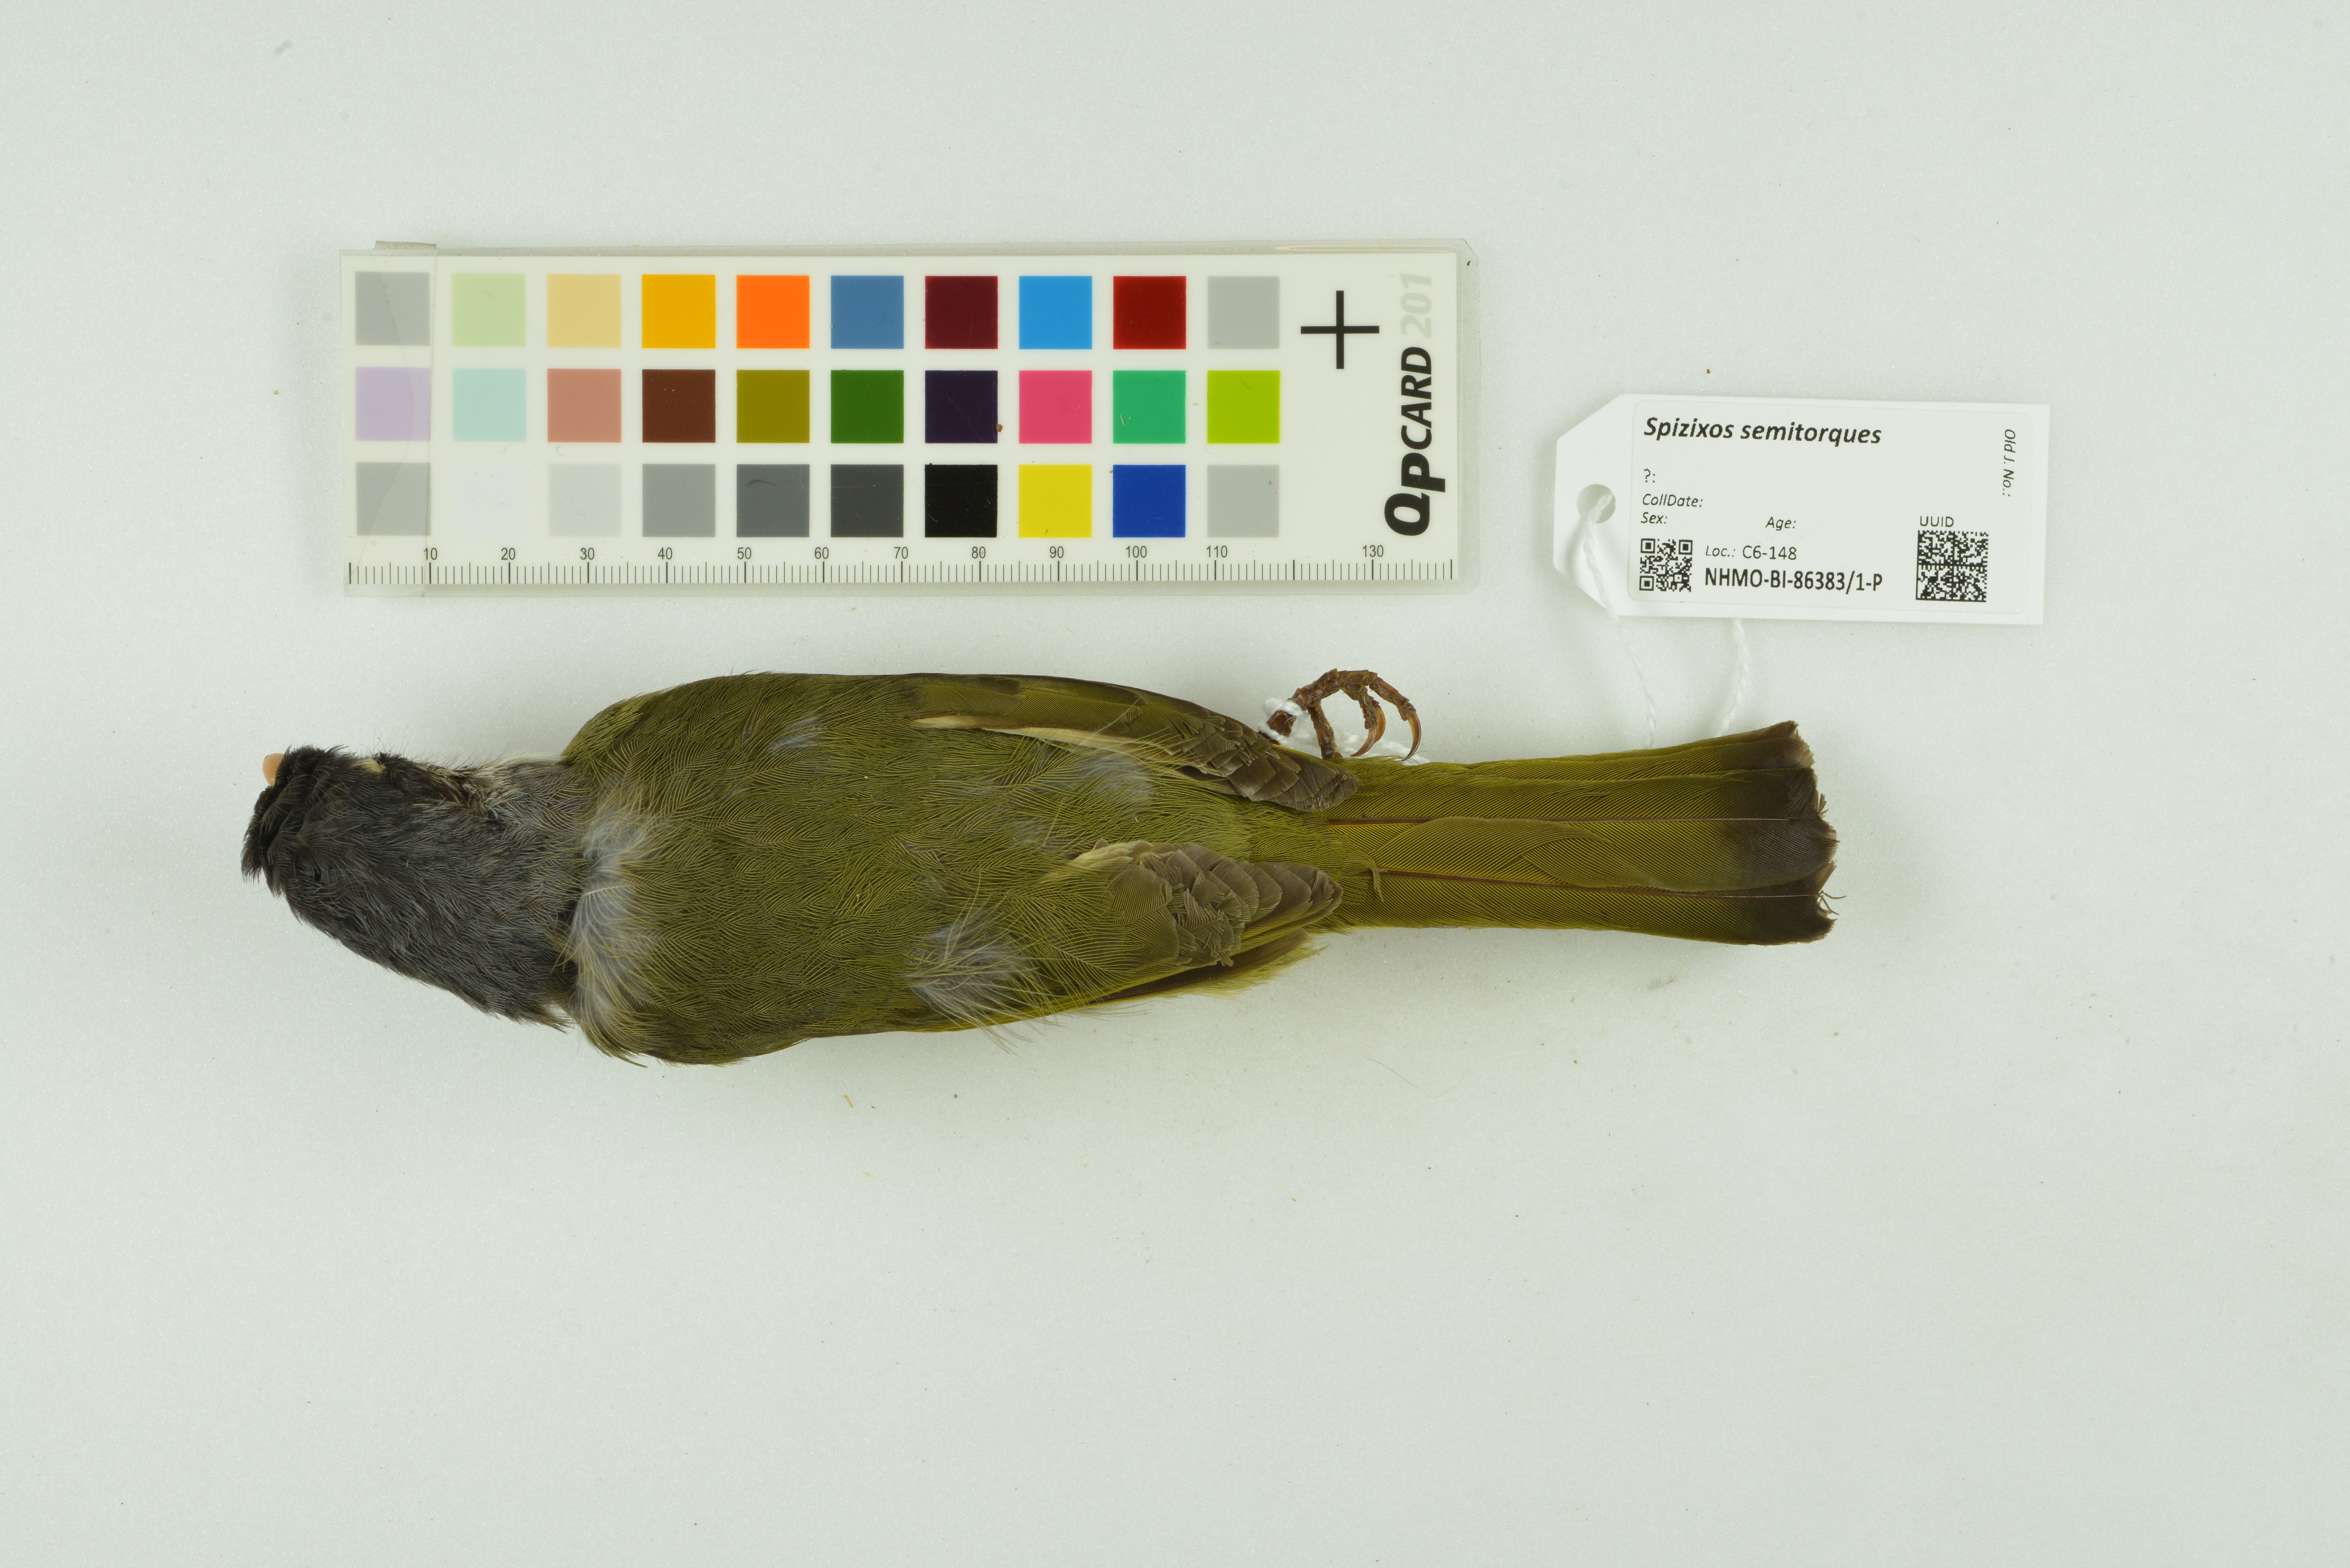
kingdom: Animalia
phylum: Chordata
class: Aves
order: Passeriformes
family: Pycnonotidae
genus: Spizixos
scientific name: Spizixos semitorques
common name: Collared finchbill
